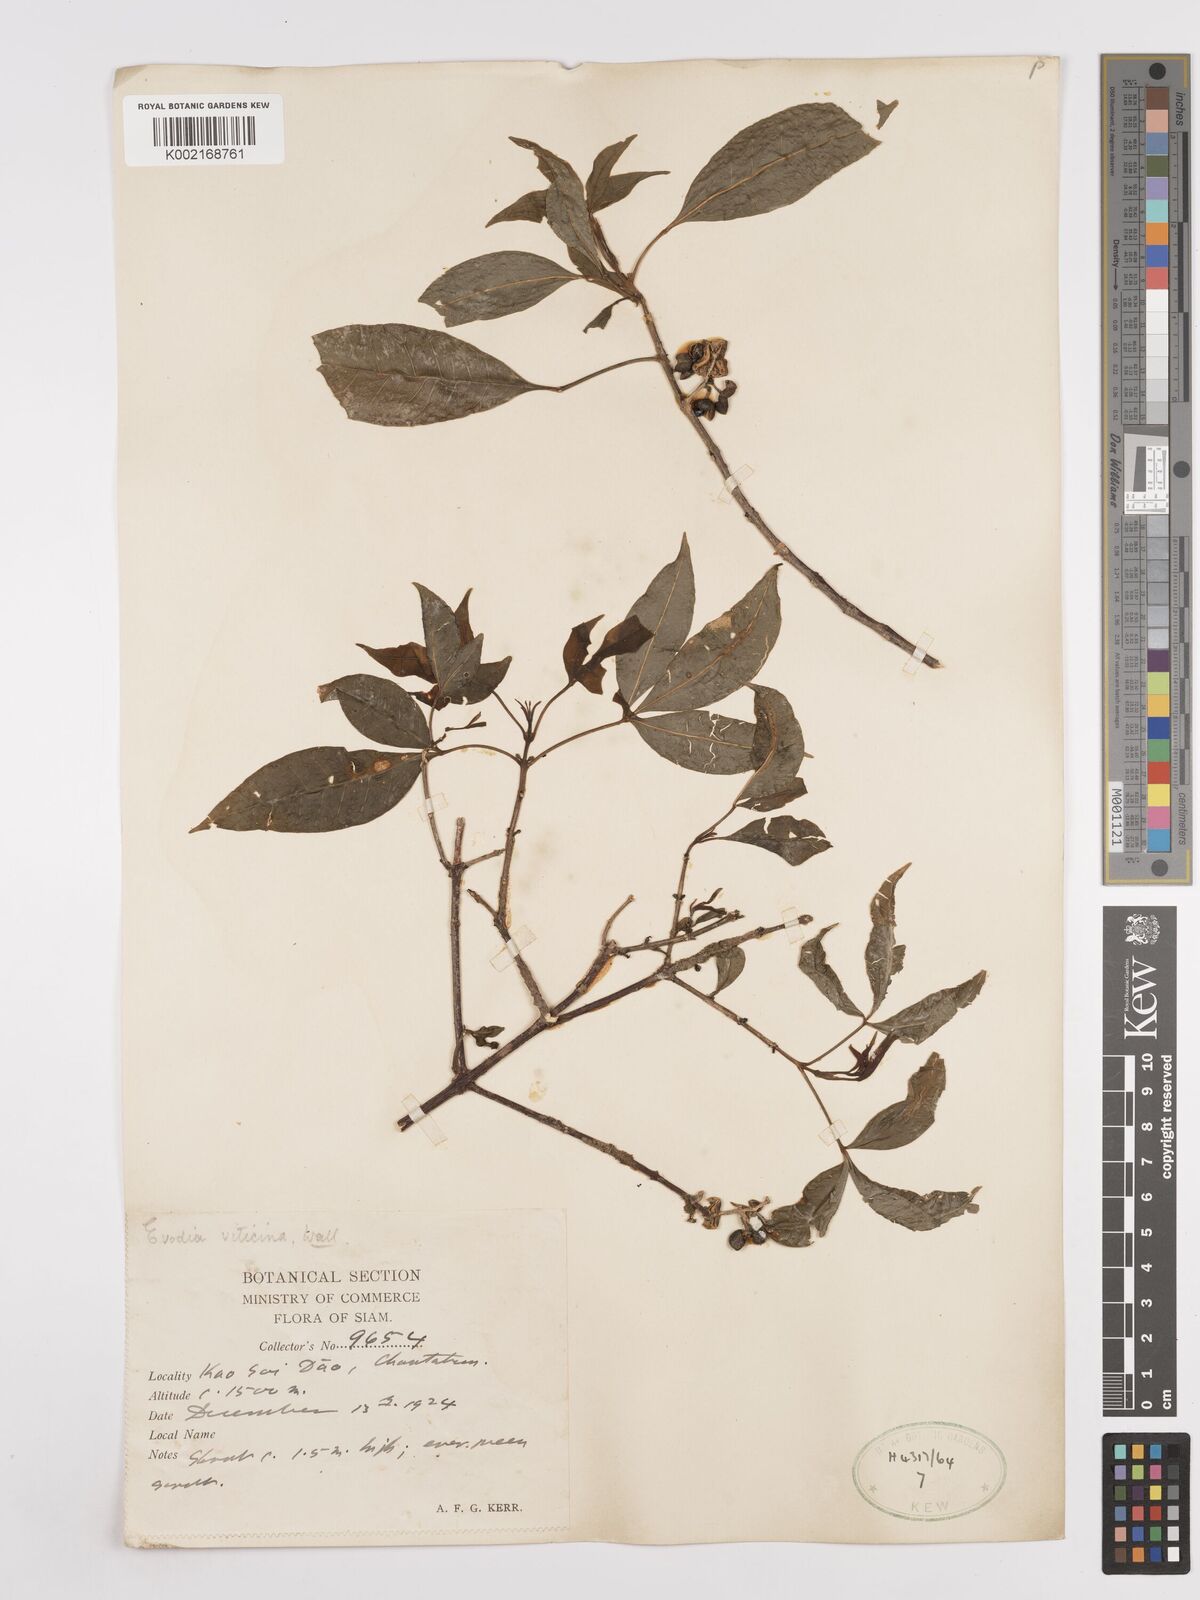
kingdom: Plantae
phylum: Tracheophyta
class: Magnoliopsida
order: Sapindales
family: Rutaceae
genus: Euodia
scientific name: Euodia
